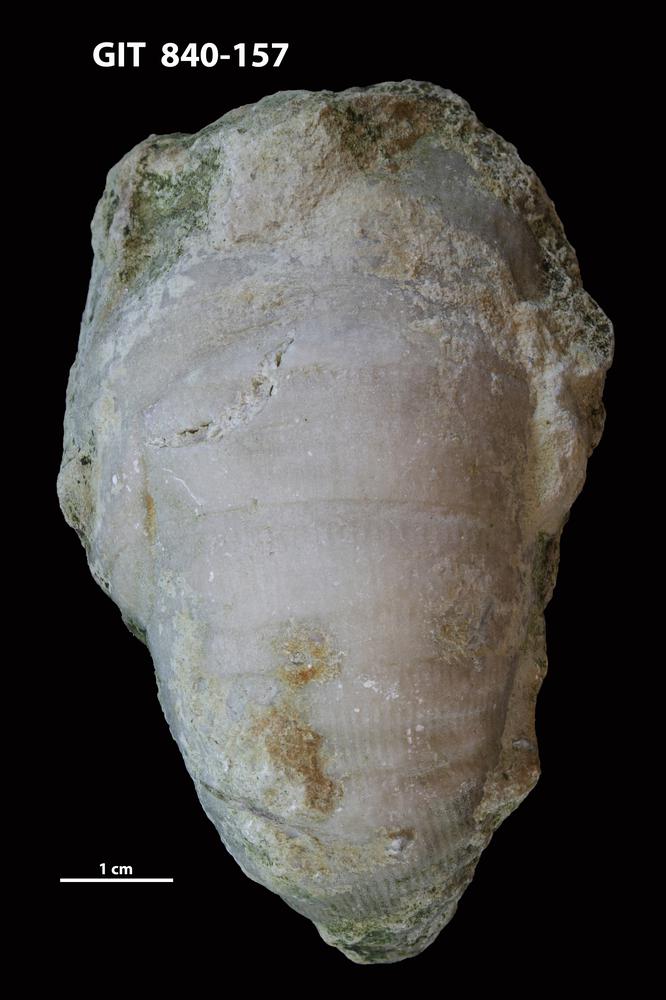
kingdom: Animalia
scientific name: Animalia
